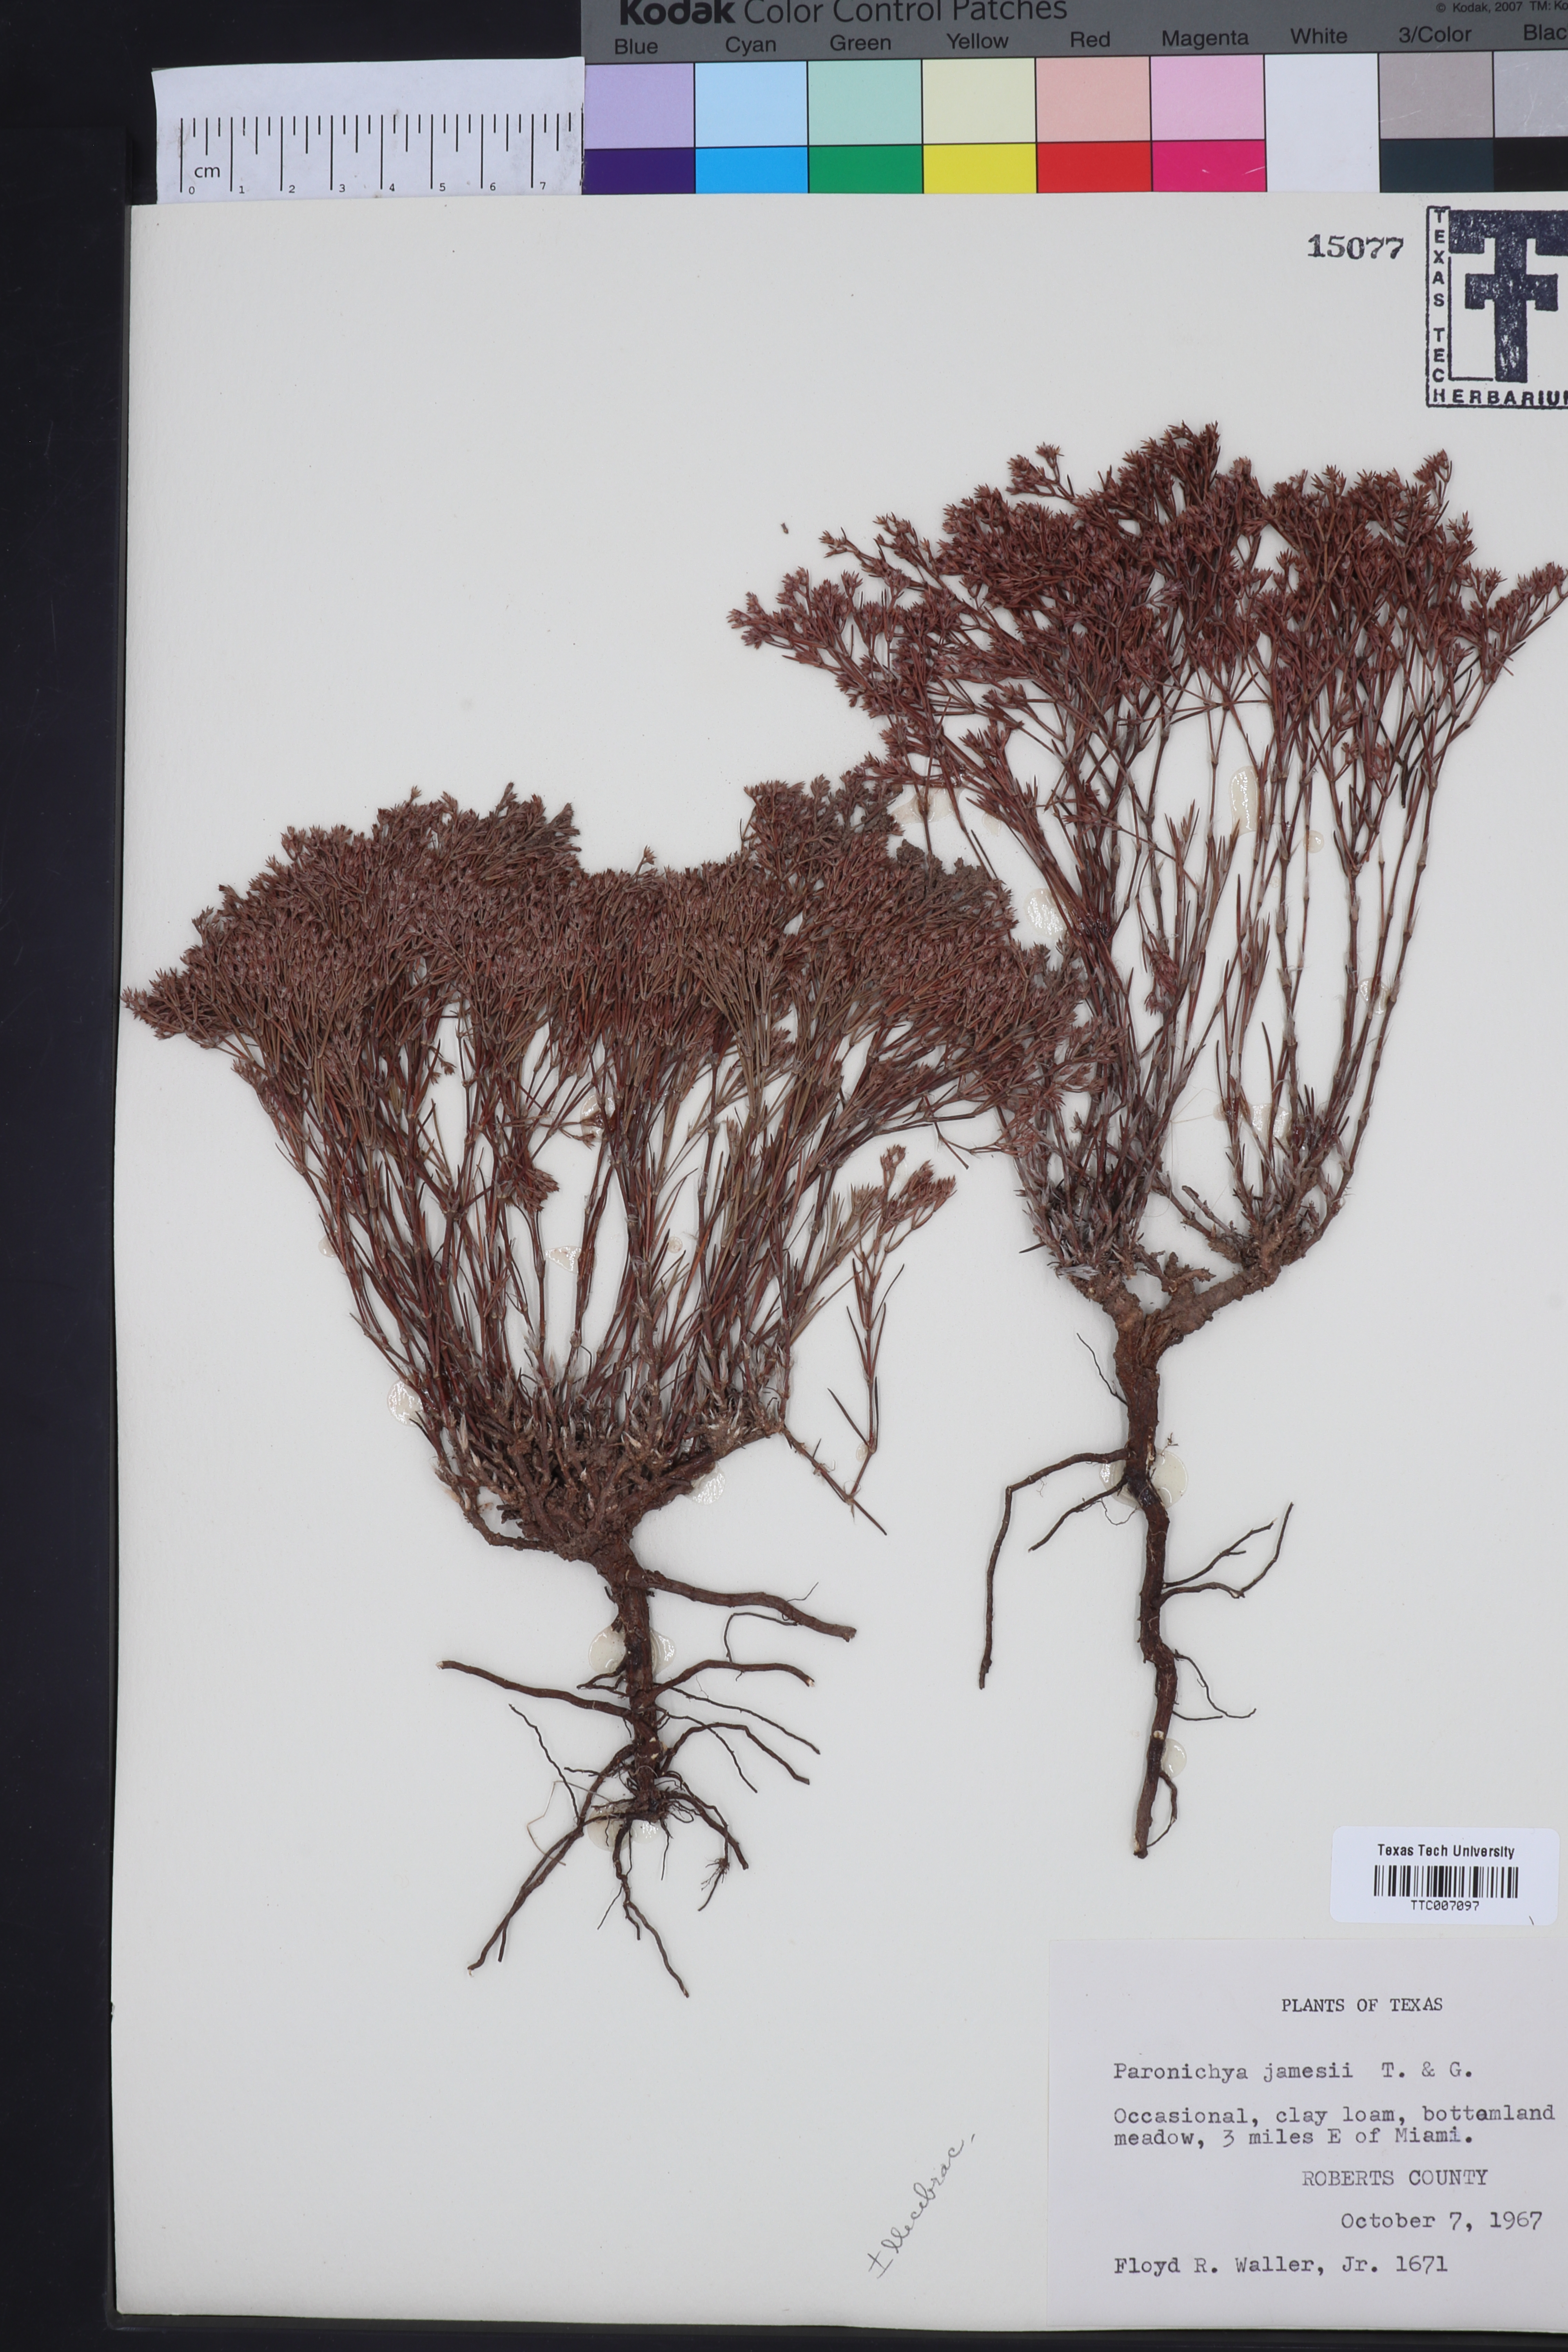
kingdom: Plantae
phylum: Tracheophyta
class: Magnoliopsida
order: Caryophyllales
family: Caryophyllaceae
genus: Paronychia
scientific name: Paronychia jamesii
